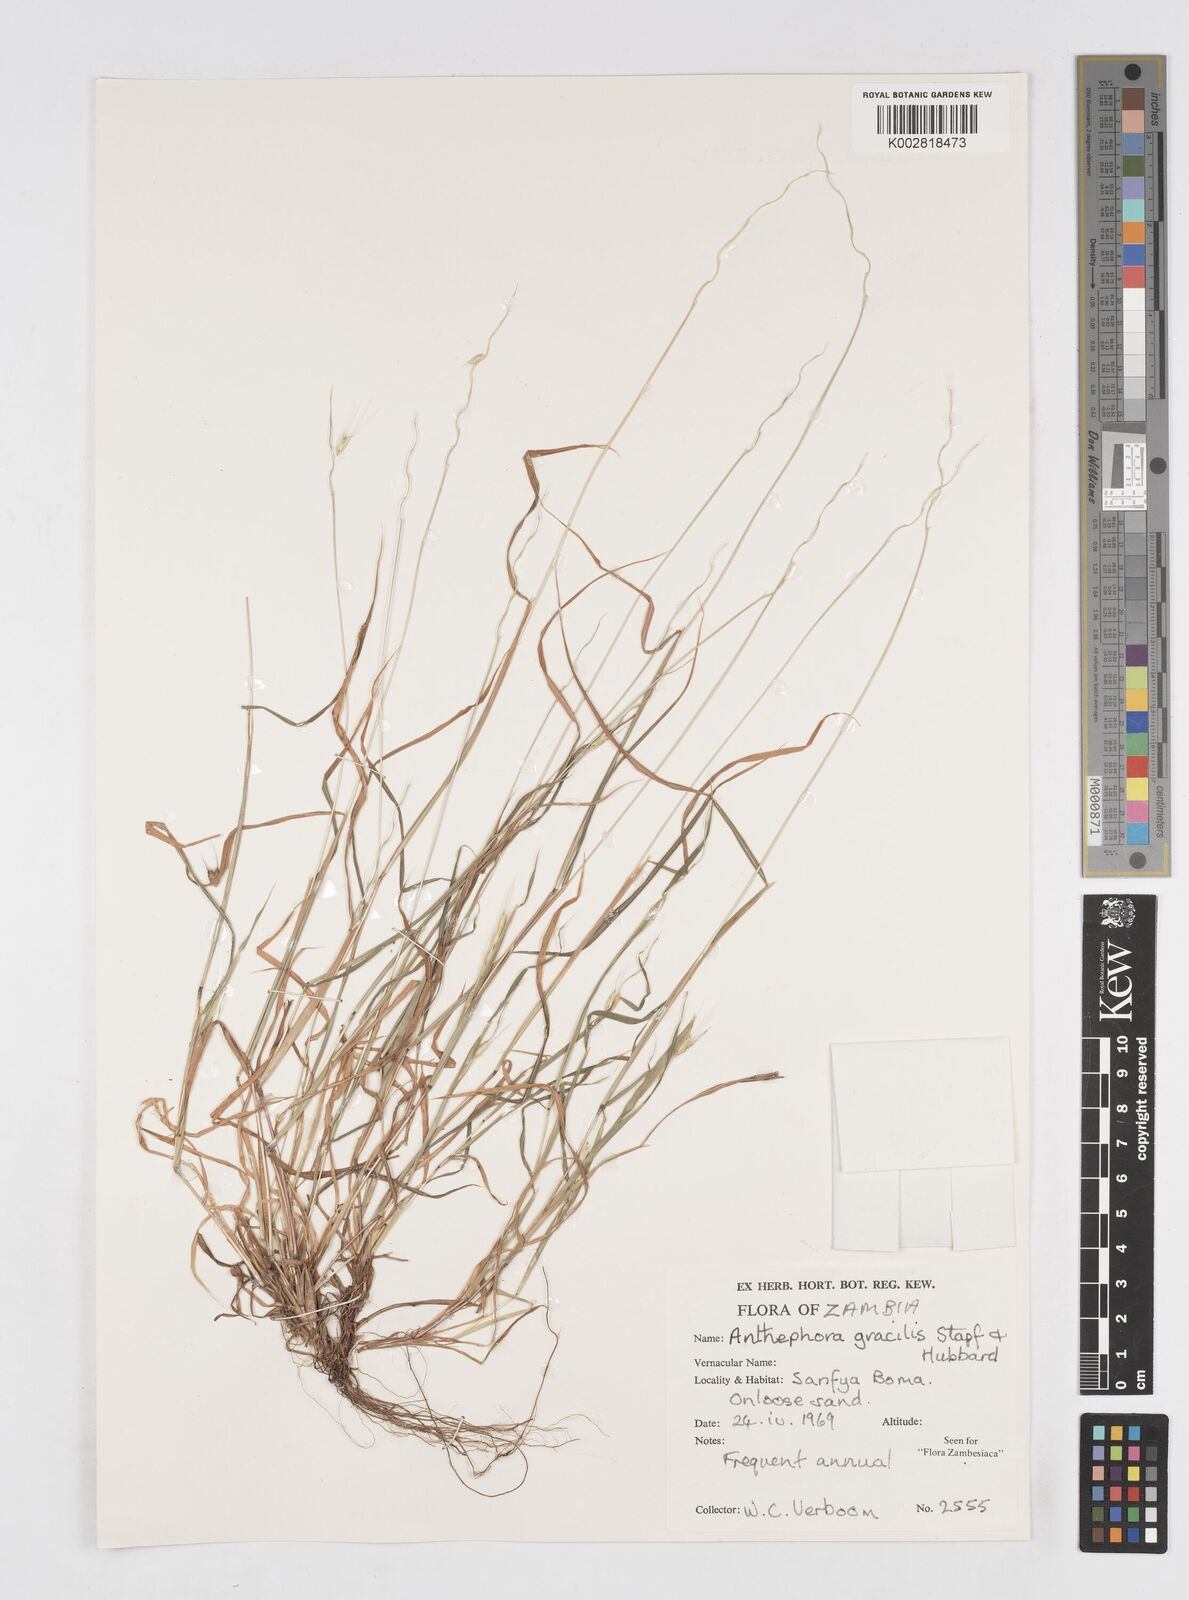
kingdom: Plantae
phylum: Tracheophyta
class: Liliopsida
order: Poales
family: Poaceae
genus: Anthephora
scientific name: Anthephora truncata
